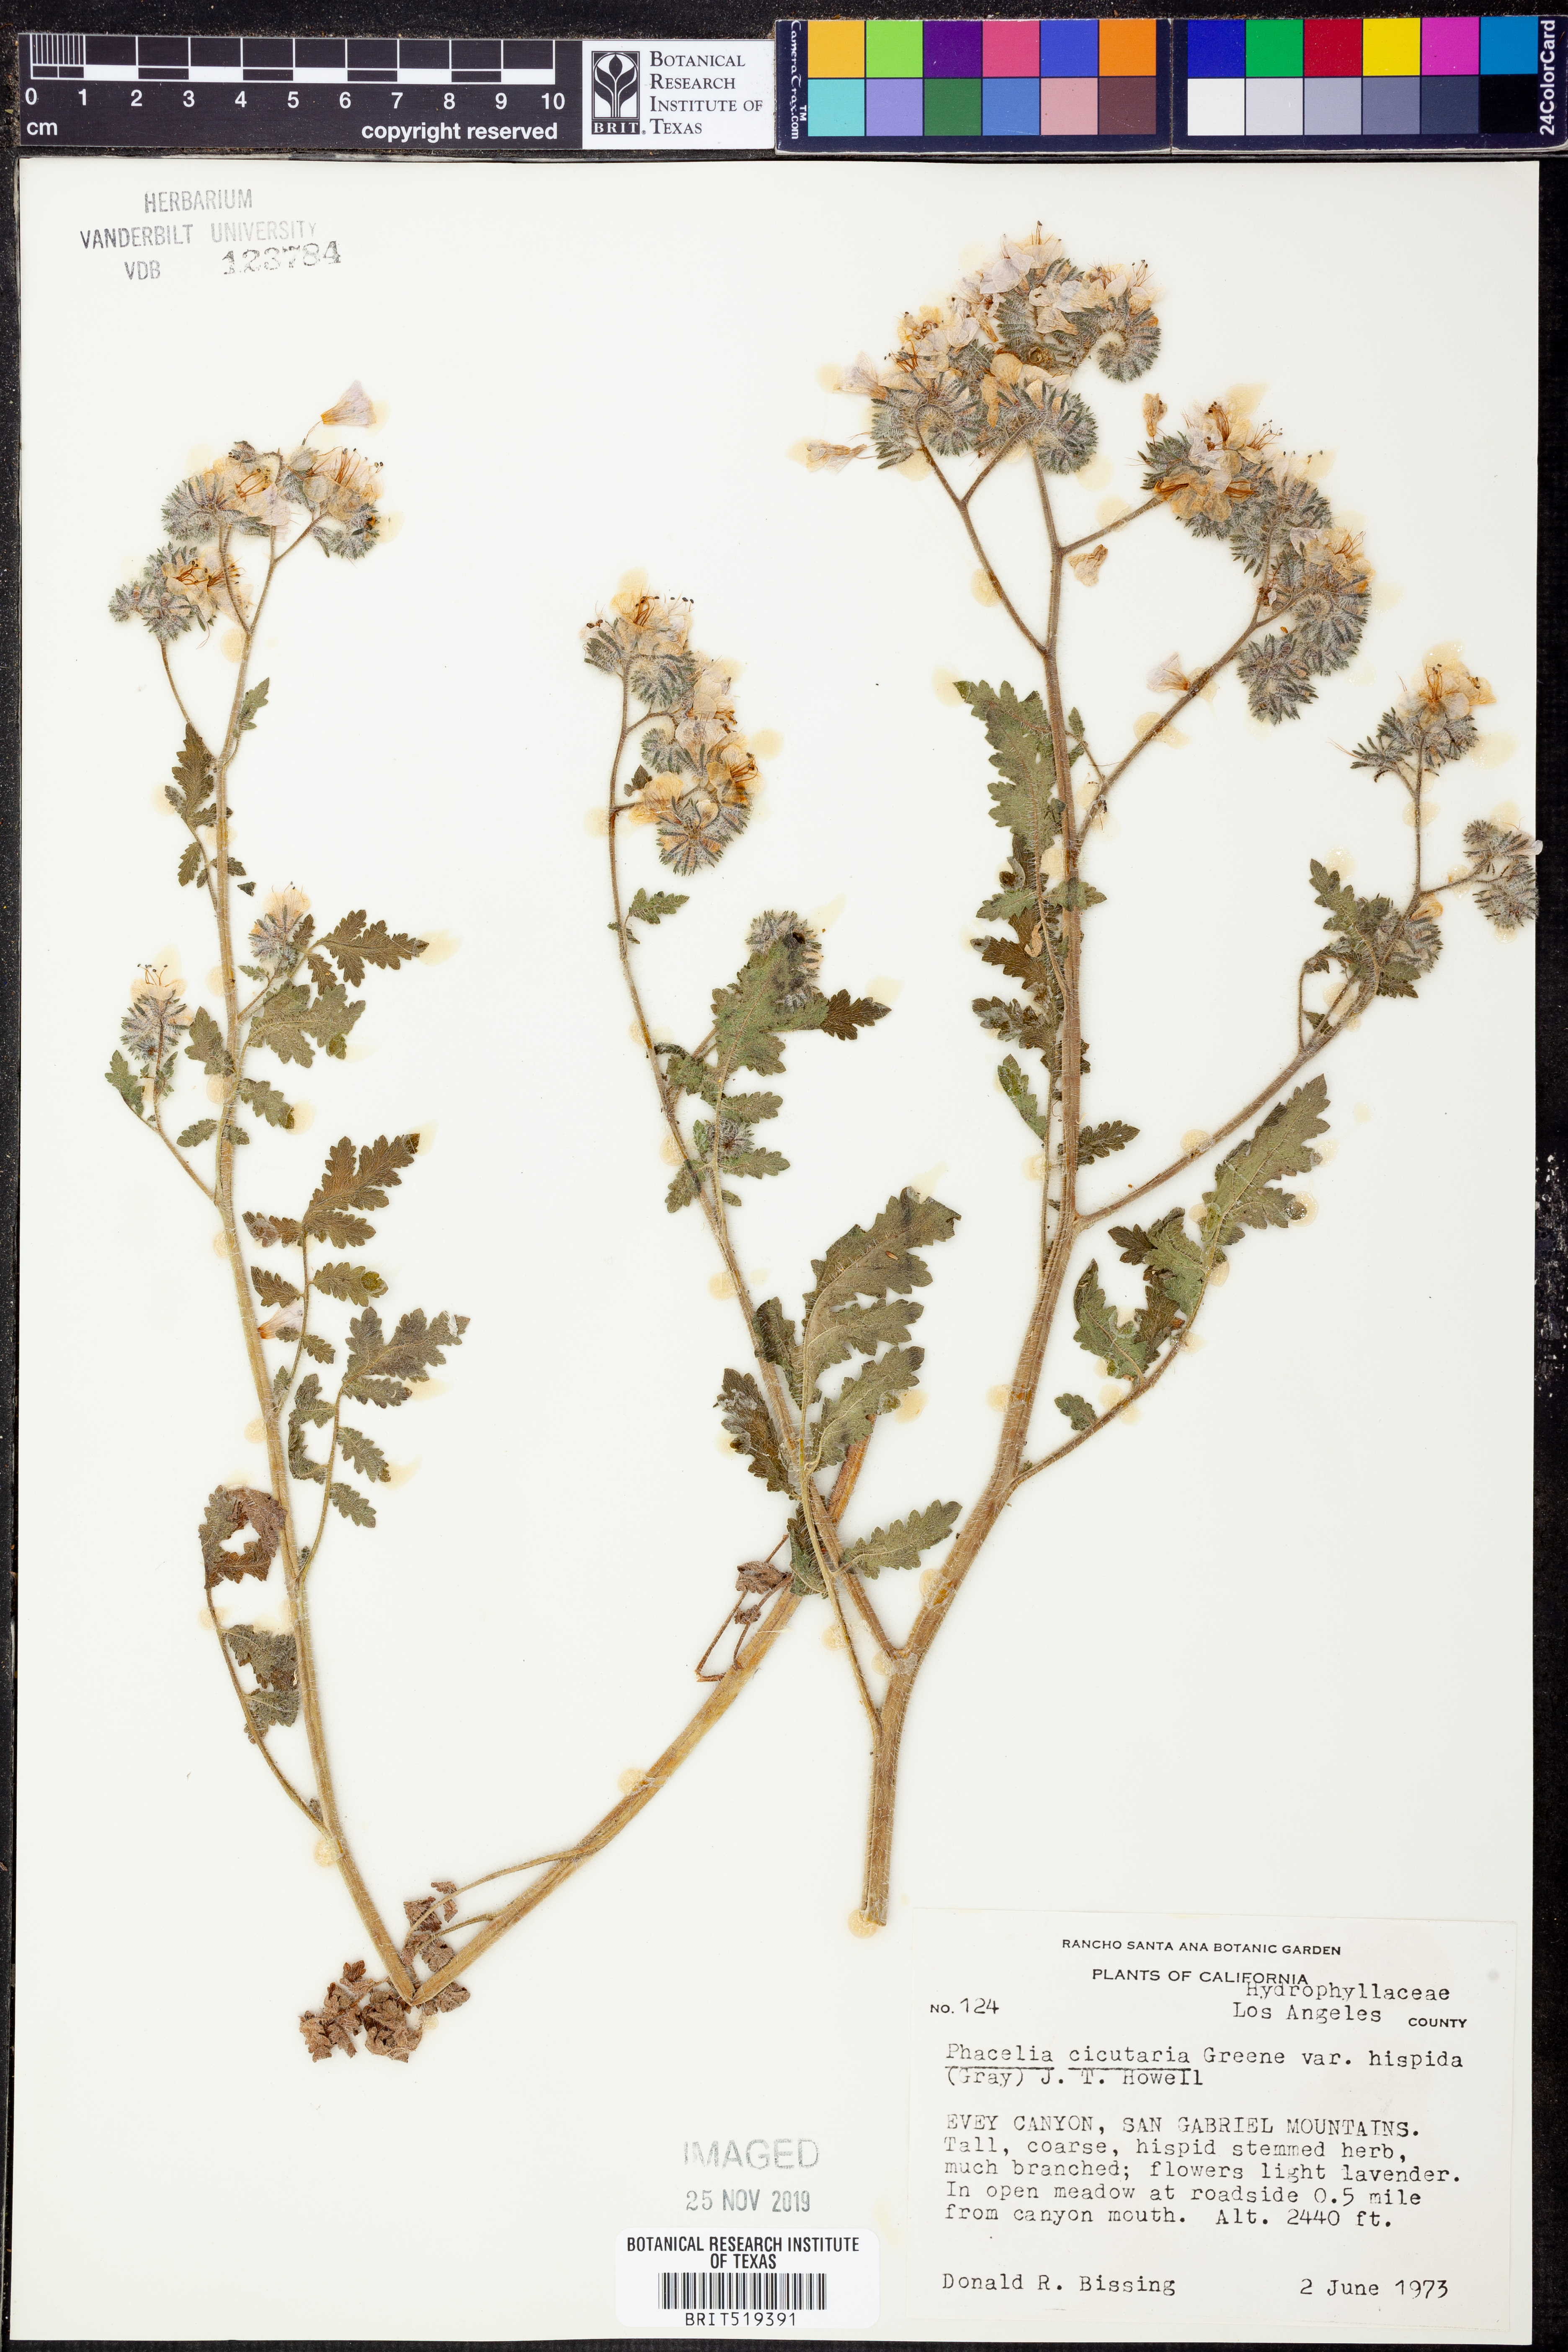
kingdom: Plantae
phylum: Tracheophyta
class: Magnoliopsida
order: Boraginales
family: Hydrophyllaceae
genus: Phacelia
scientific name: Phacelia cicutaria
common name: Caterpillar phacelia
